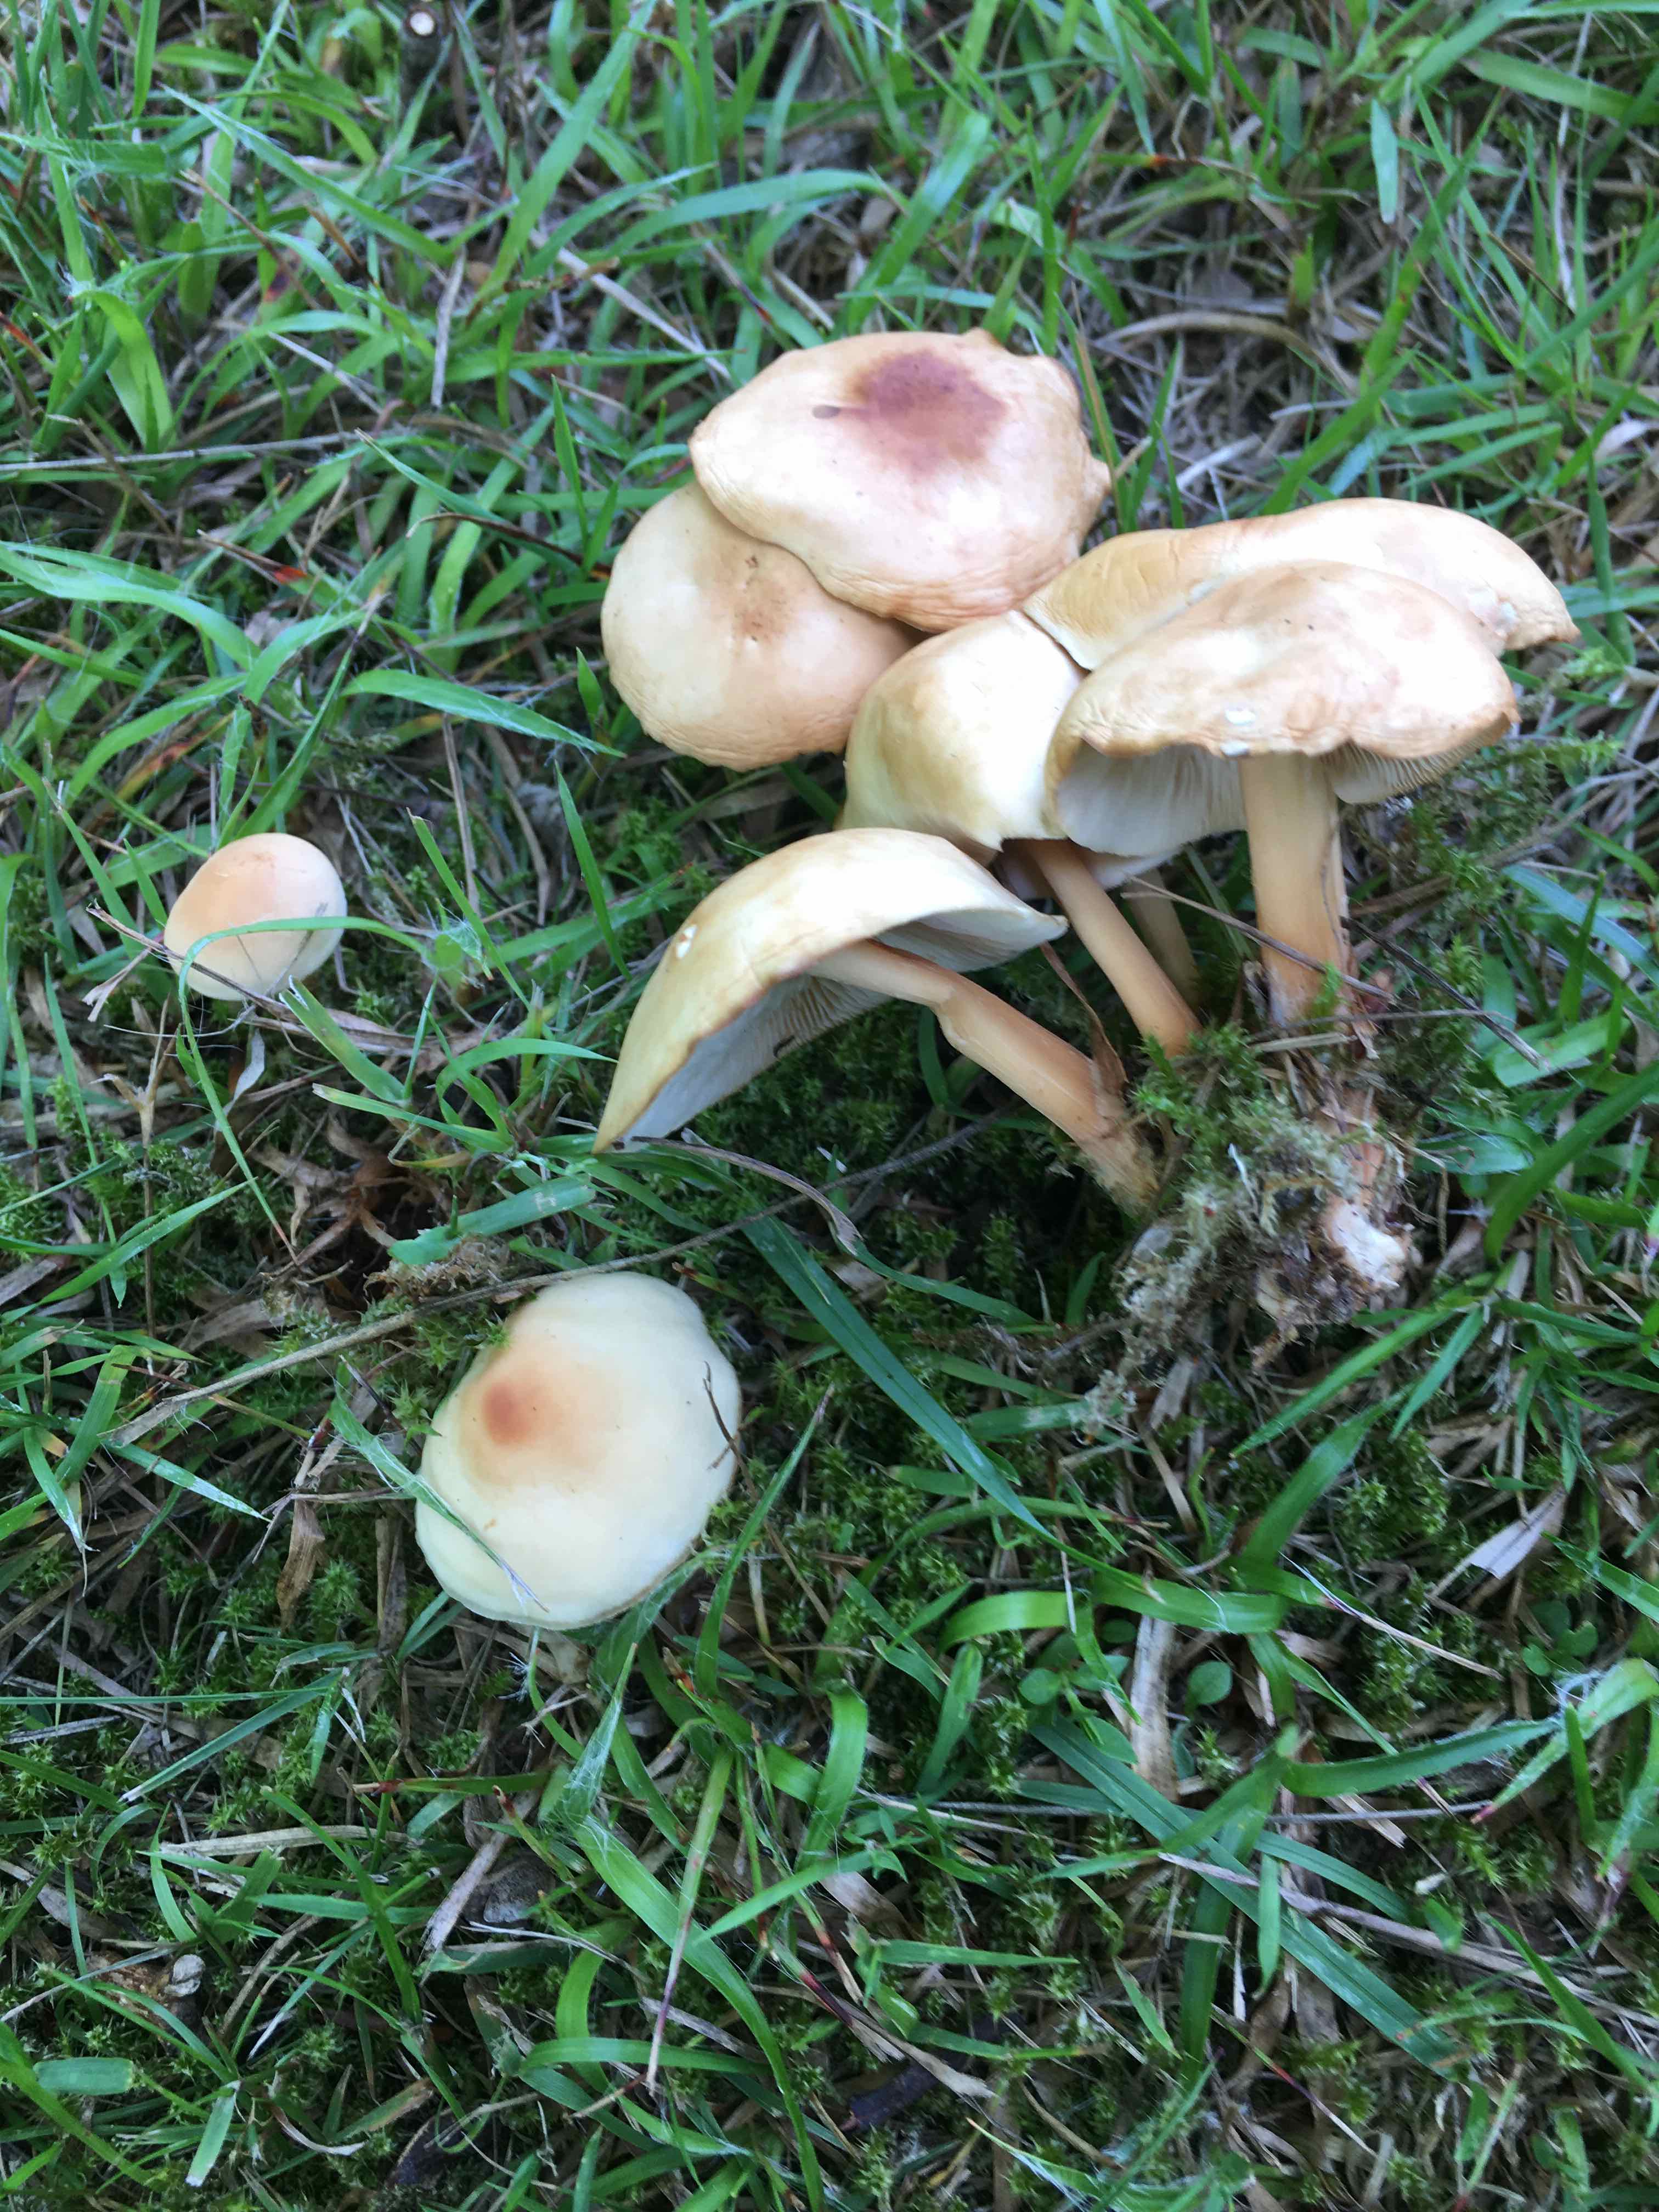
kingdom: Fungi
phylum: Basidiomycota
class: Agaricomycetes
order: Agaricales
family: Omphalotaceae
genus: Gymnopus
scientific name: Gymnopus dryophilus
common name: løv-fladhat
